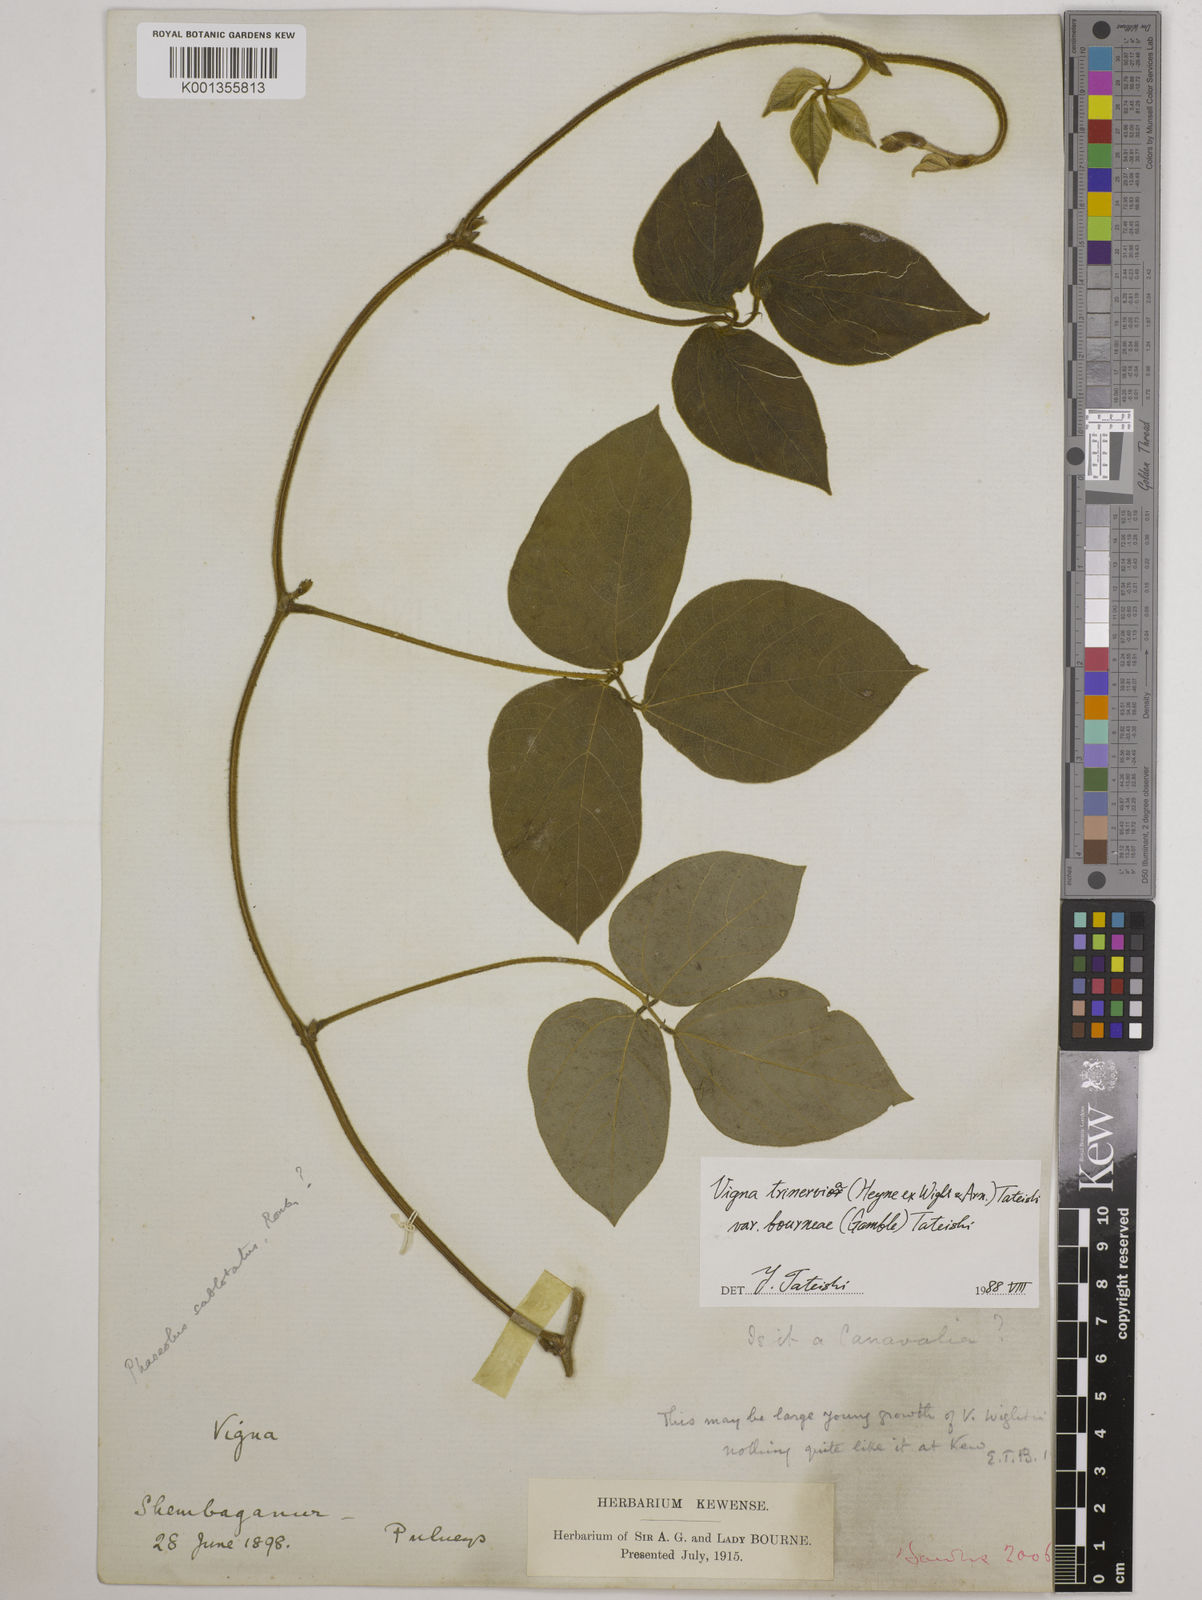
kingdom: Plantae
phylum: Tracheophyta
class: Magnoliopsida
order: Fabales
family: Fabaceae
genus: Vigna
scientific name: Vigna radiata
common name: Mung-bean
